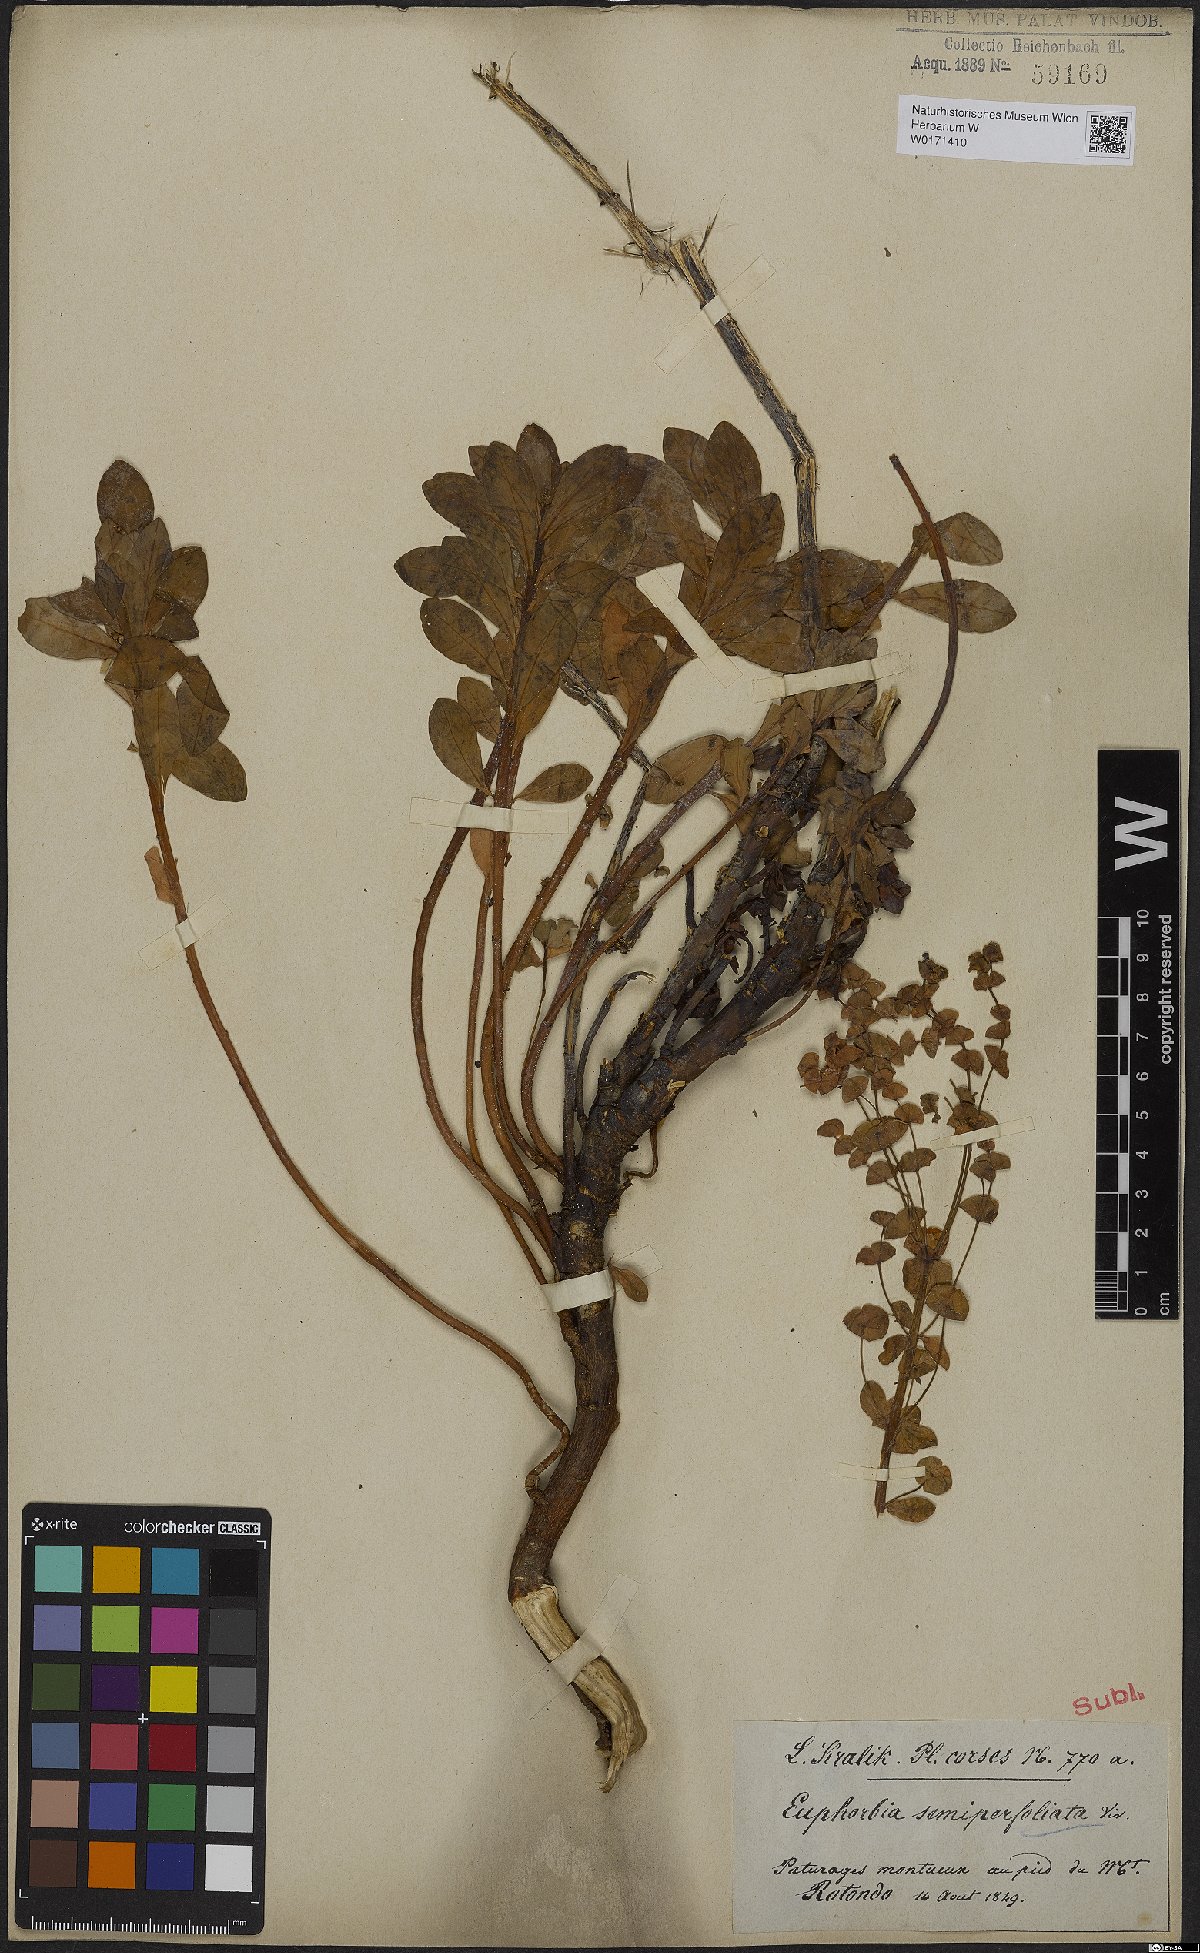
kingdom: Plantae
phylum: Tracheophyta
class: Magnoliopsida
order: Malpighiales
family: Euphorbiaceae
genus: Euphorbia
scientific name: Euphorbia semiperfoliata
